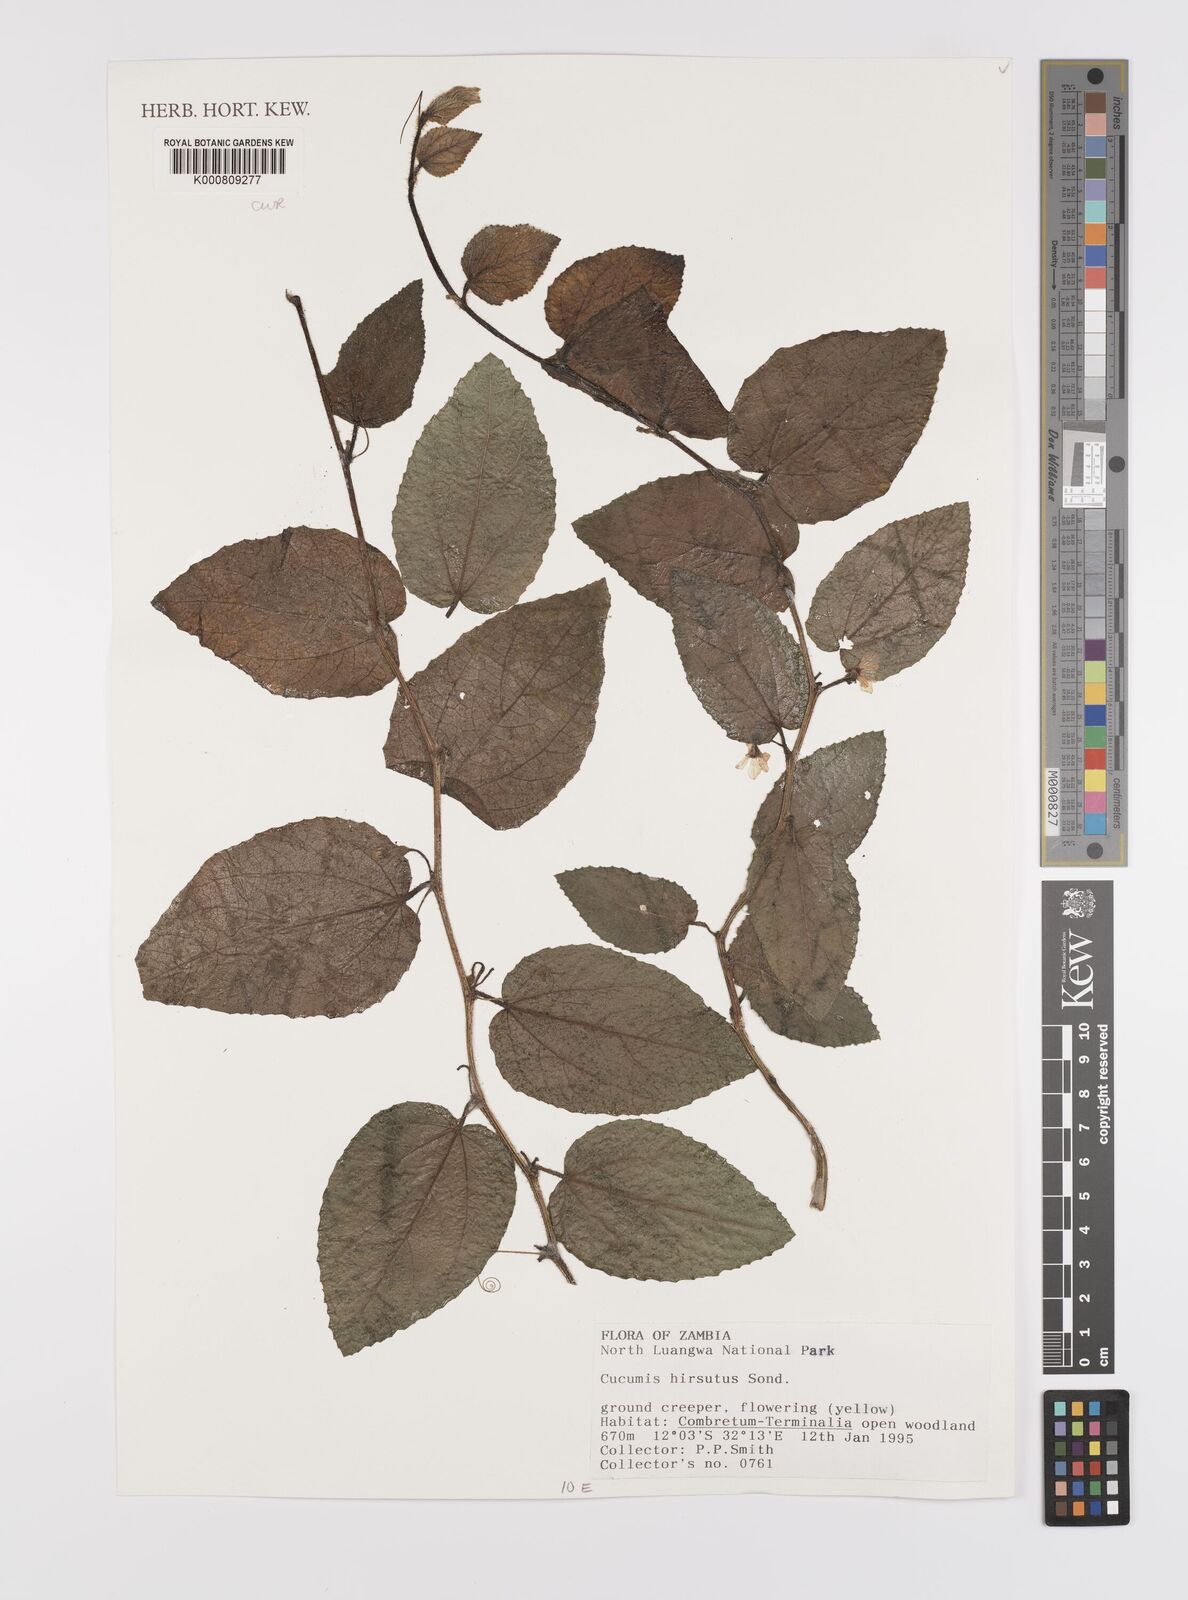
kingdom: Plantae
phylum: Tracheophyta
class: Magnoliopsida
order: Cucurbitales
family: Cucurbitaceae
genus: Cucumis
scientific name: Cucumis hirsutus
